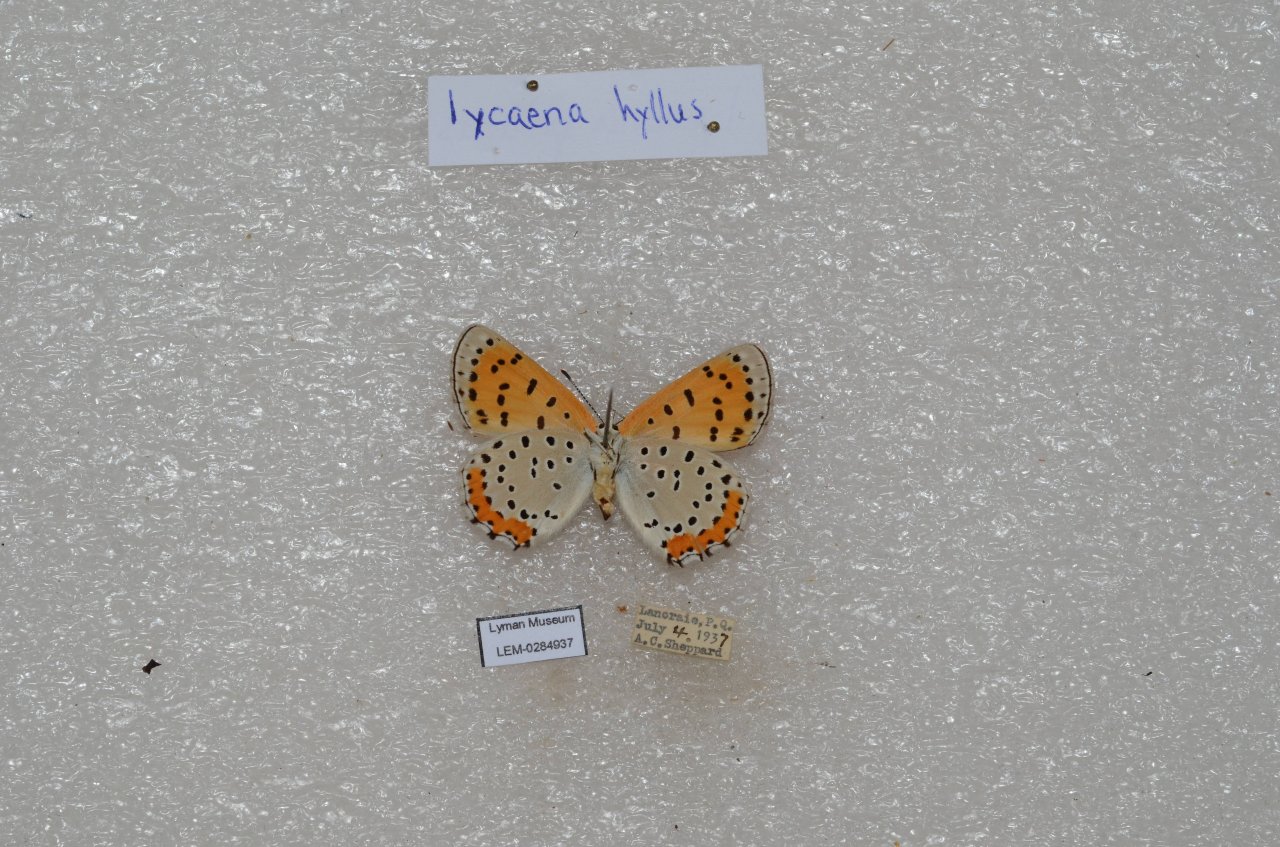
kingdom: Animalia
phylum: Arthropoda
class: Insecta
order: Lepidoptera
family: Sesiidae
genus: Sesia
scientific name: Sesia Lycaena hyllus
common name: Bronze Copper
